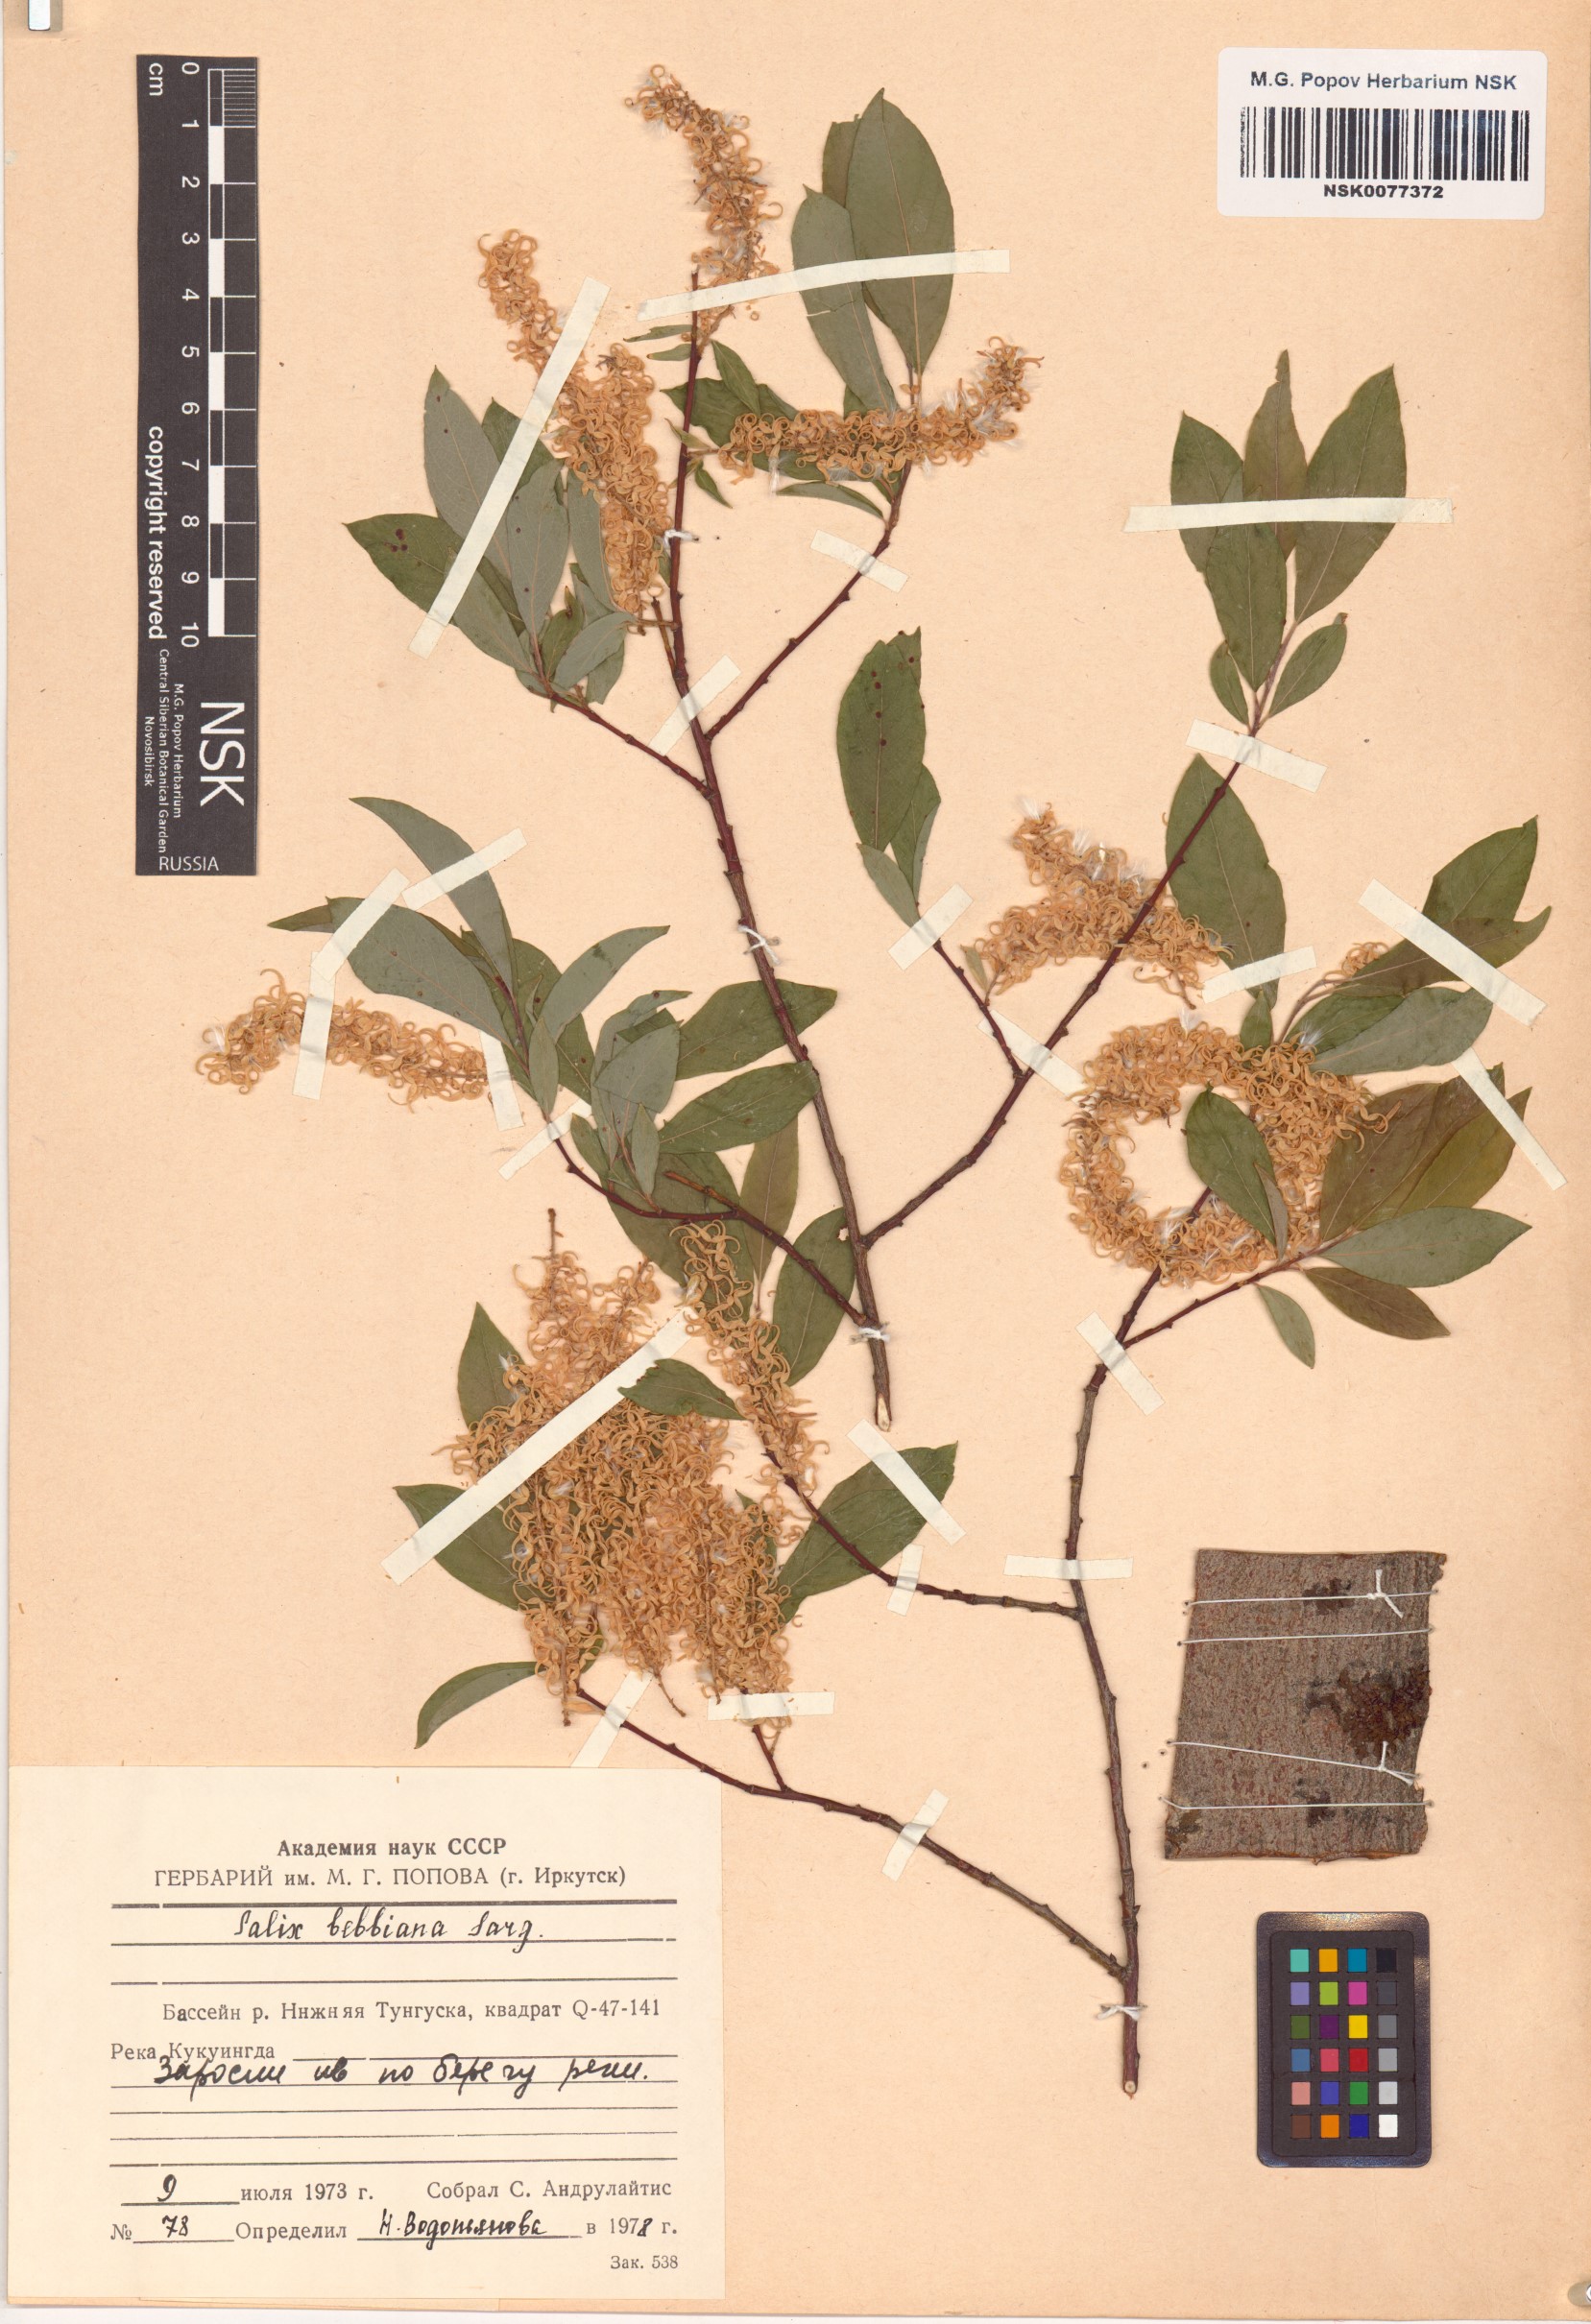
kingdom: Plantae
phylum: Tracheophyta
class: Magnoliopsida
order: Malpighiales
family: Salicaceae
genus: Salix
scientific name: Salix bebbiana
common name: Bebb's willow
